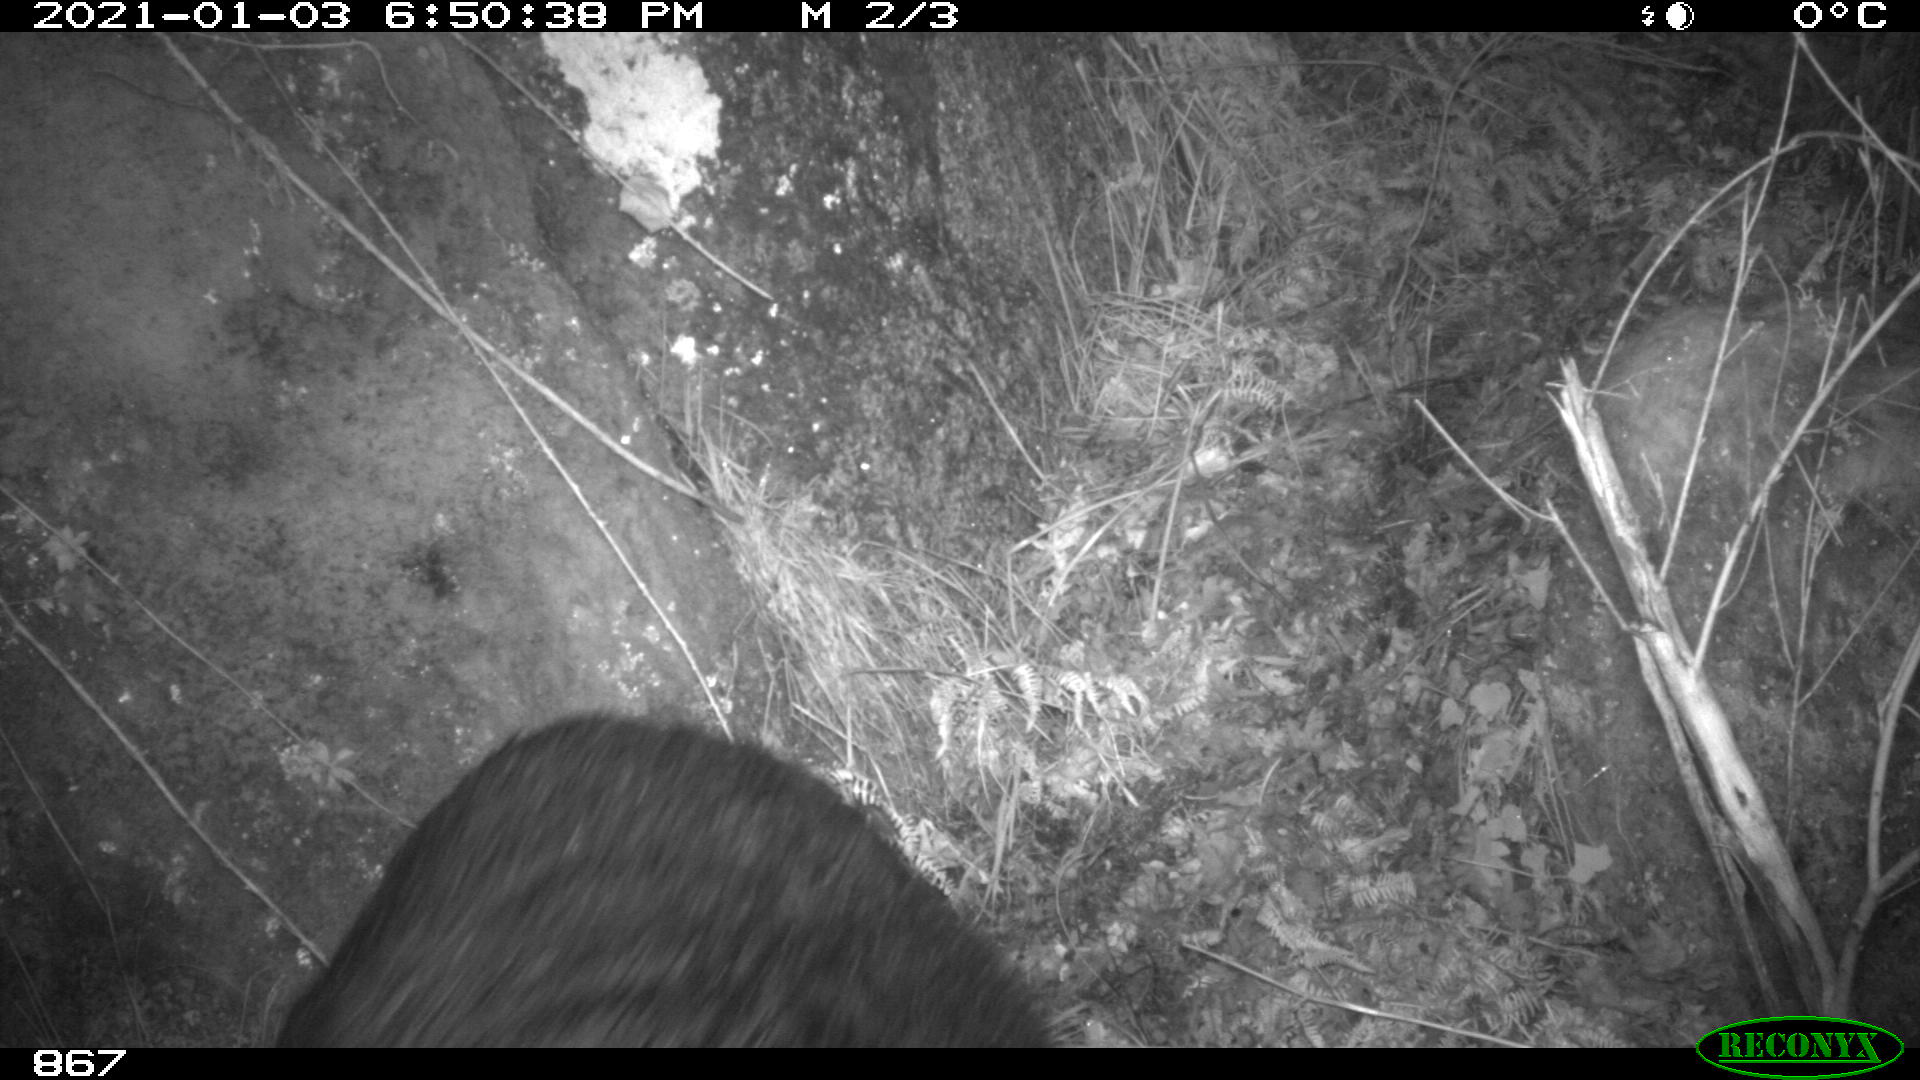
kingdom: Animalia
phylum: Chordata
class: Mammalia
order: Artiodactyla
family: Suidae
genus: Sus
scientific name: Sus scrofa
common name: Wild boar
